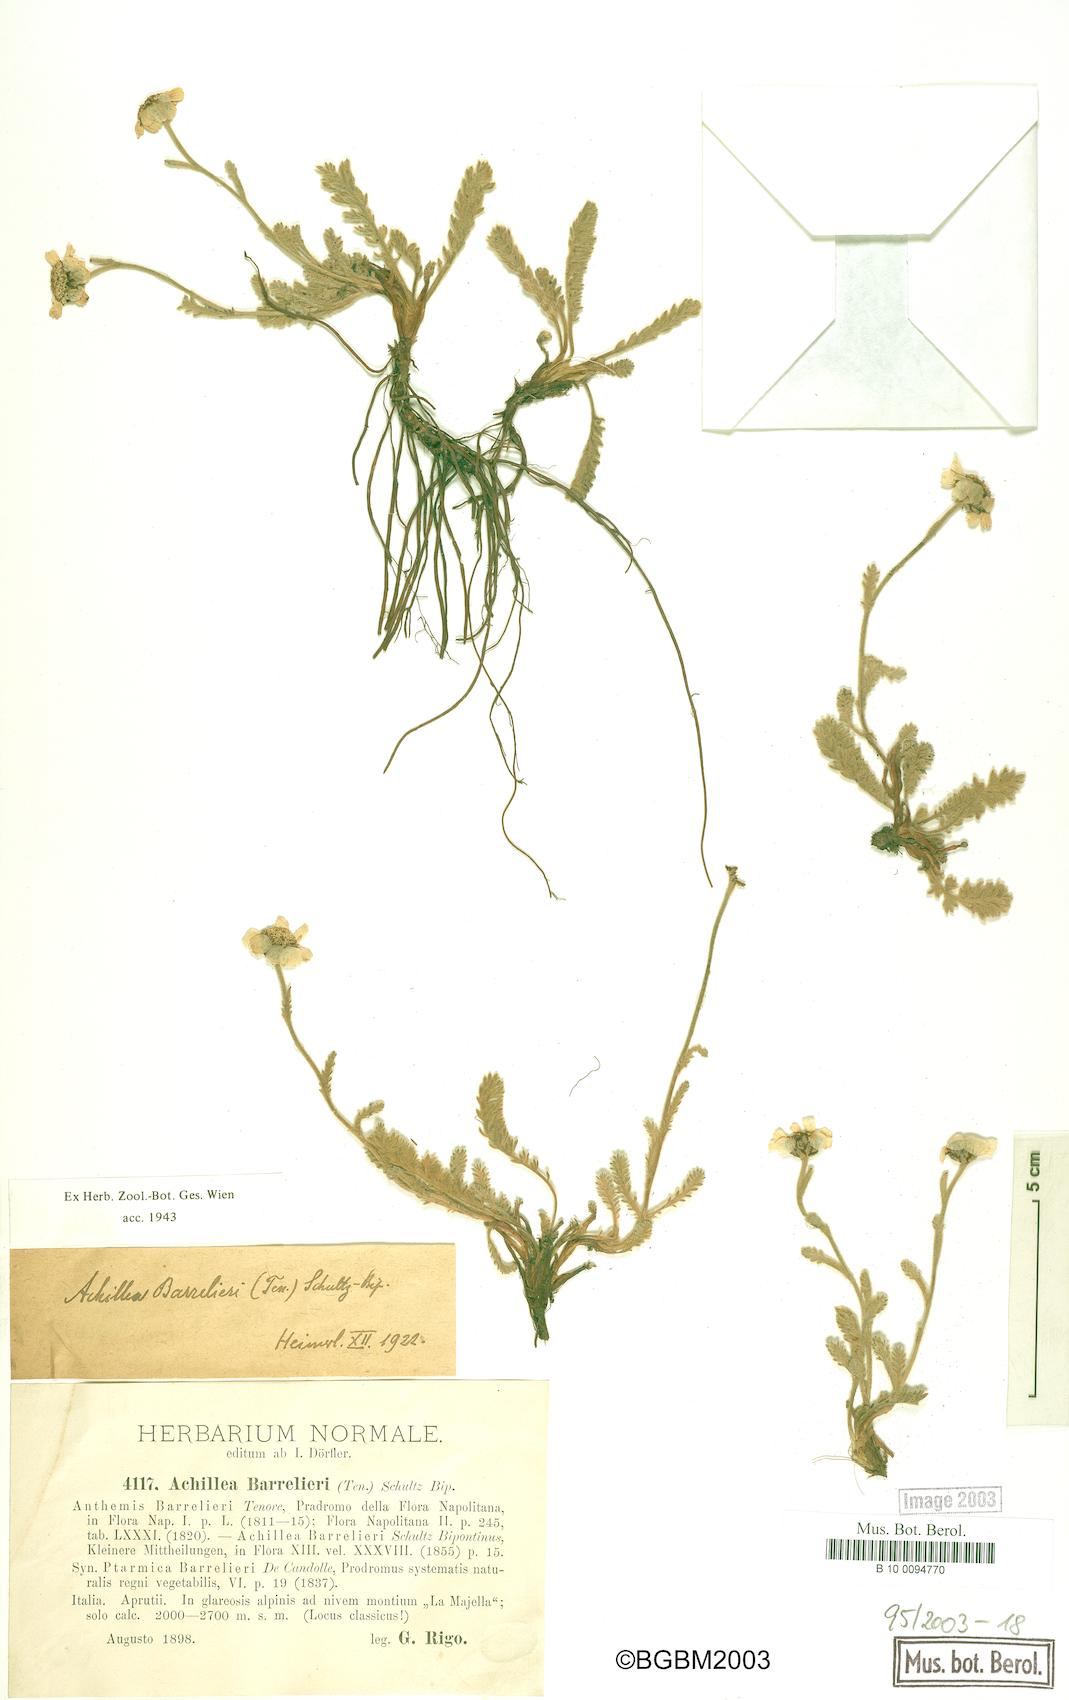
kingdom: Plantae
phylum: Tracheophyta
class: Magnoliopsida
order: Asterales
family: Asteraceae
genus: Achillea
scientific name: Achillea barrelieri
